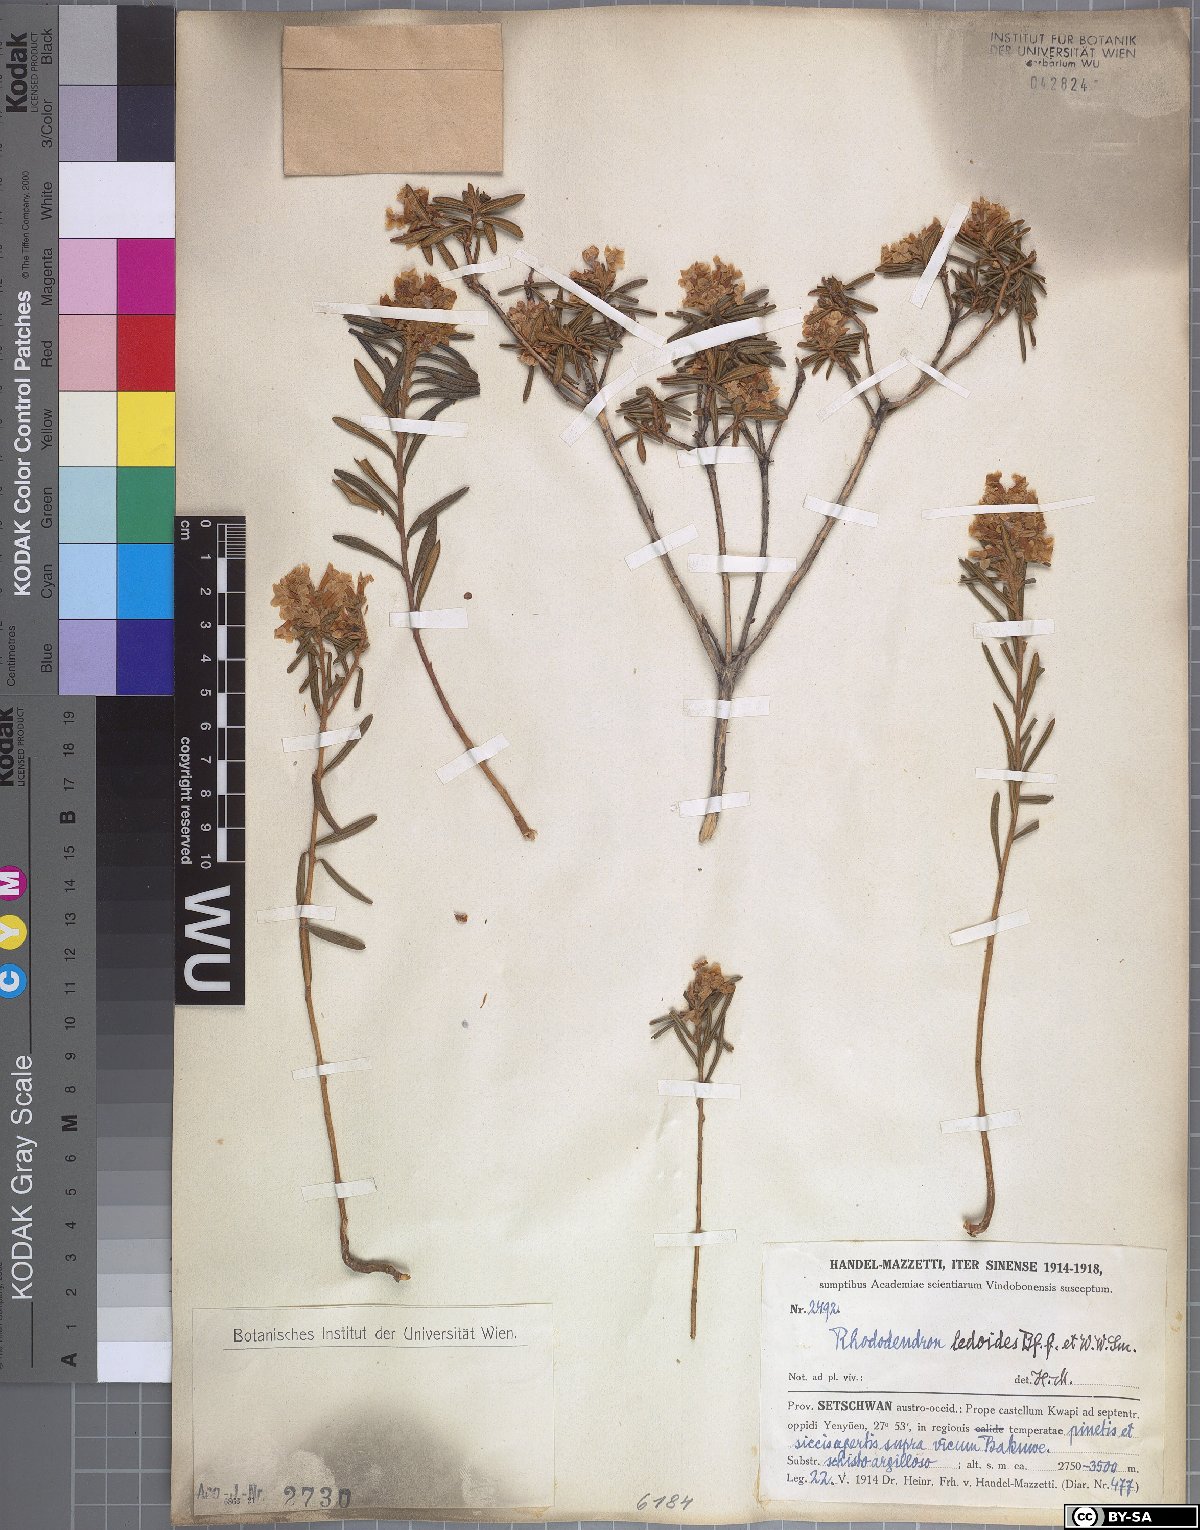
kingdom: Plantae
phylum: Tracheophyta
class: Magnoliopsida
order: Ericales
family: Ericaceae
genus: Rhododendron
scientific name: Rhododendron trichostomum
